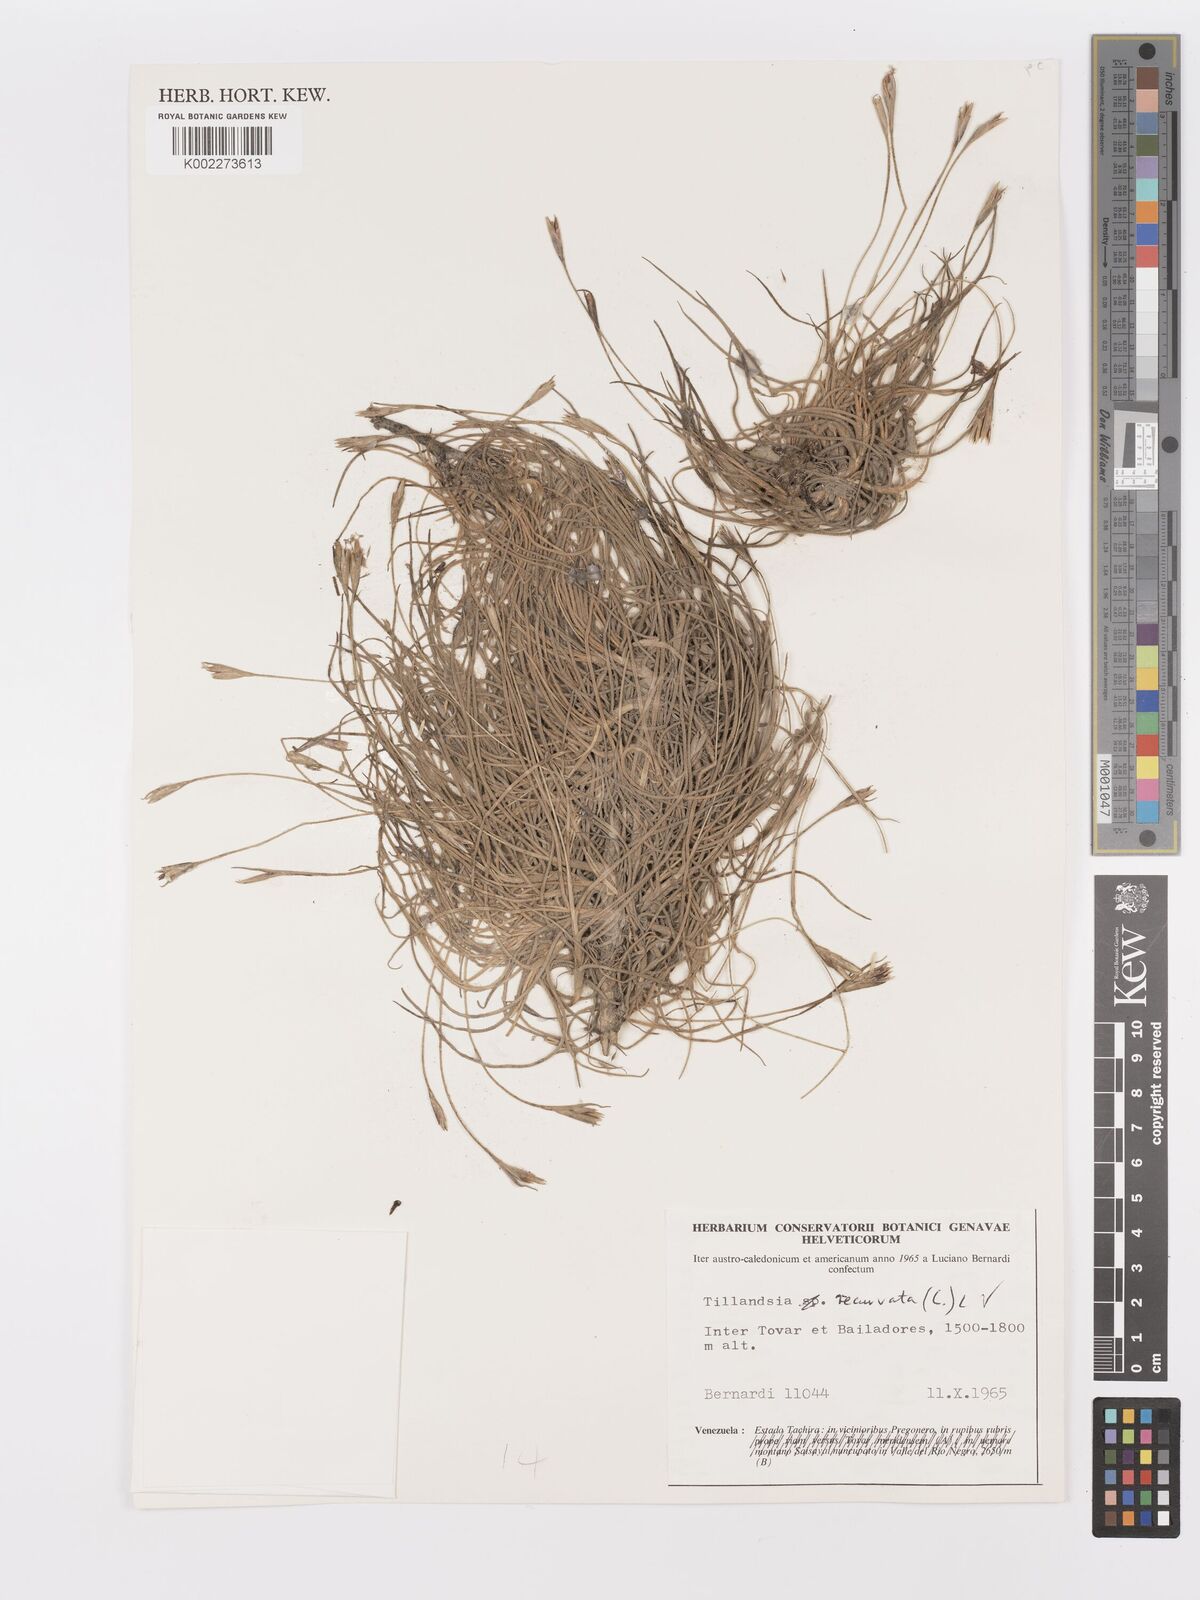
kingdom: Plantae
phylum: Tracheophyta
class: Liliopsida
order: Poales
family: Bromeliaceae
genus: Tillandsia
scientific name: Tillandsia recurvata
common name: Small ballmoss
